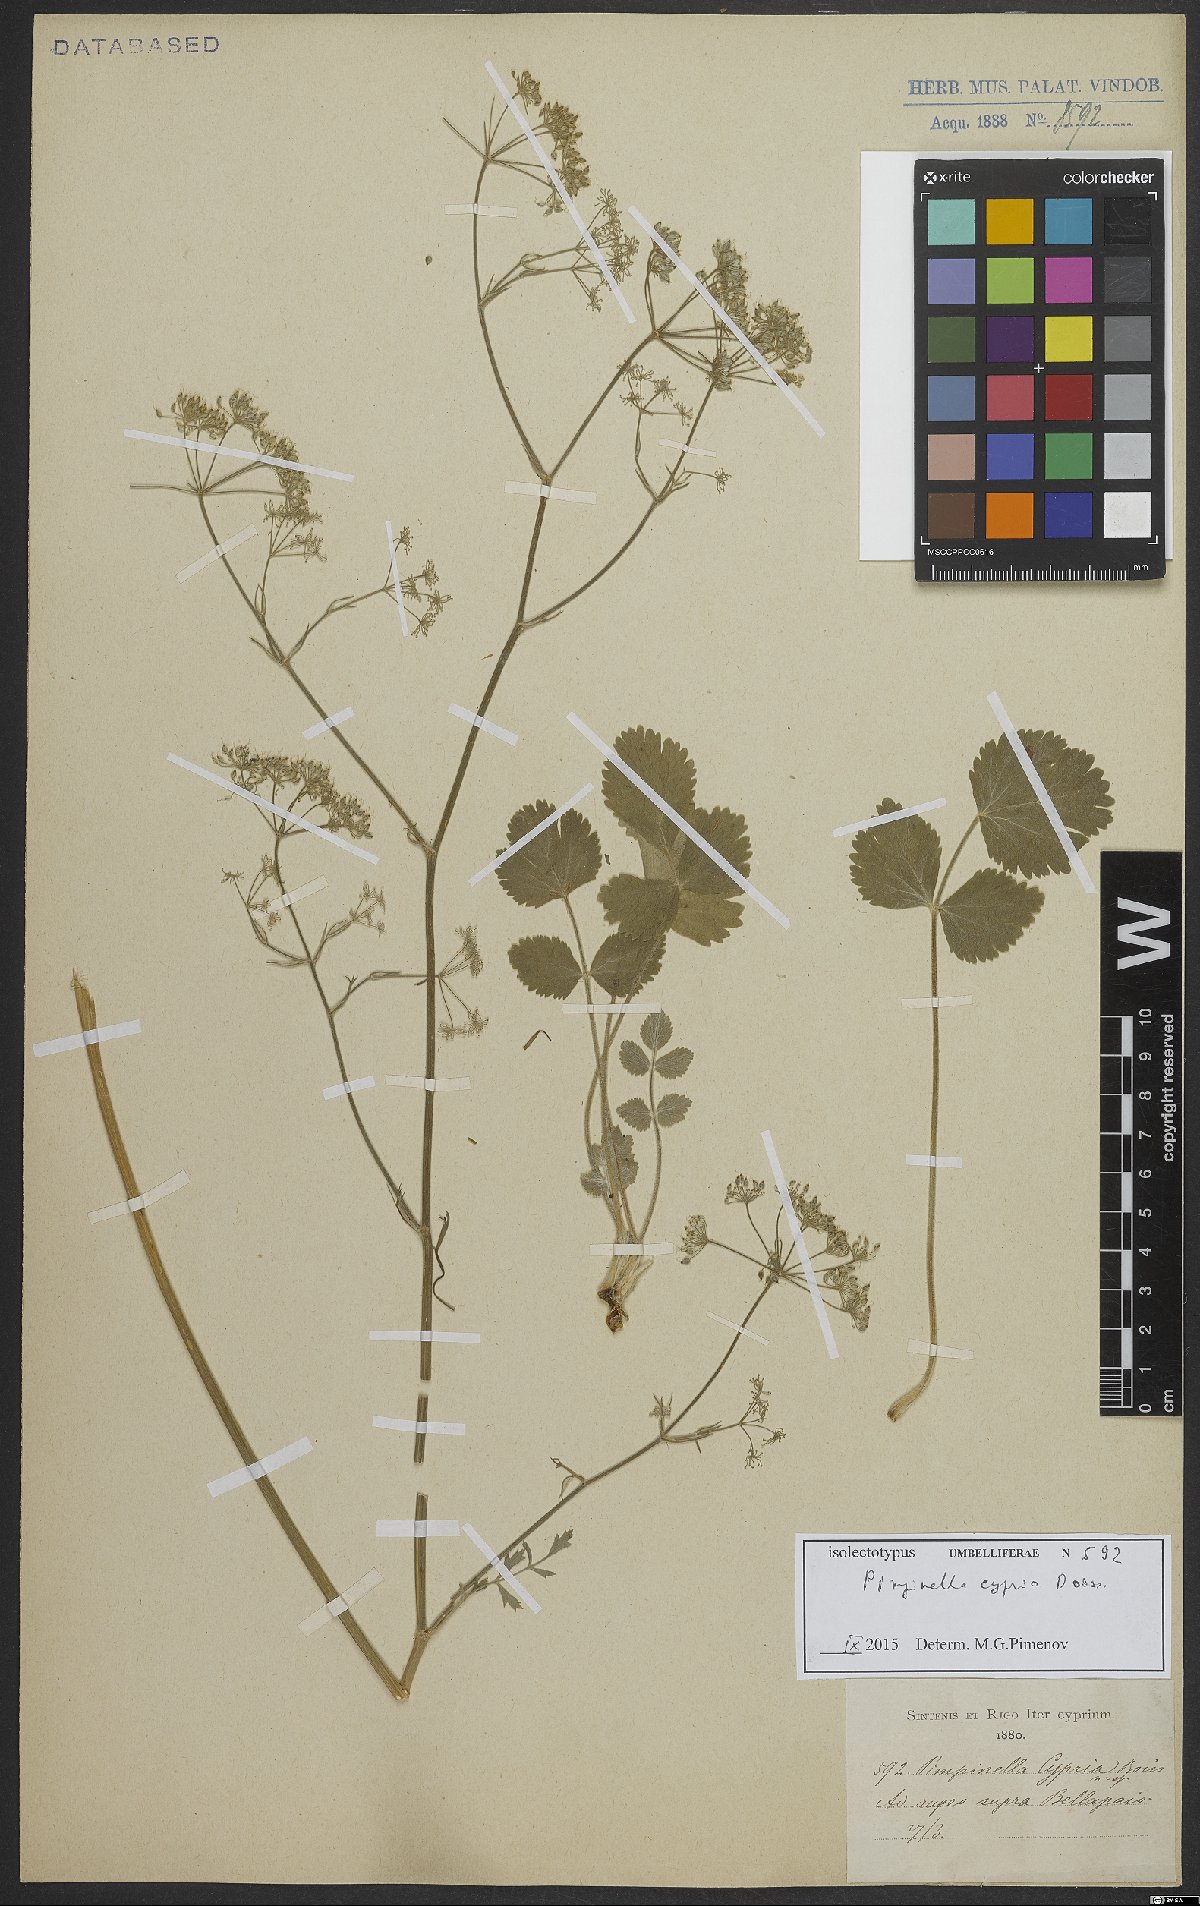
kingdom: Plantae
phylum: Tracheophyta
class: Magnoliopsida
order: Apiales
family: Apiaceae
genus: Pimpinella
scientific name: Pimpinella cypria
